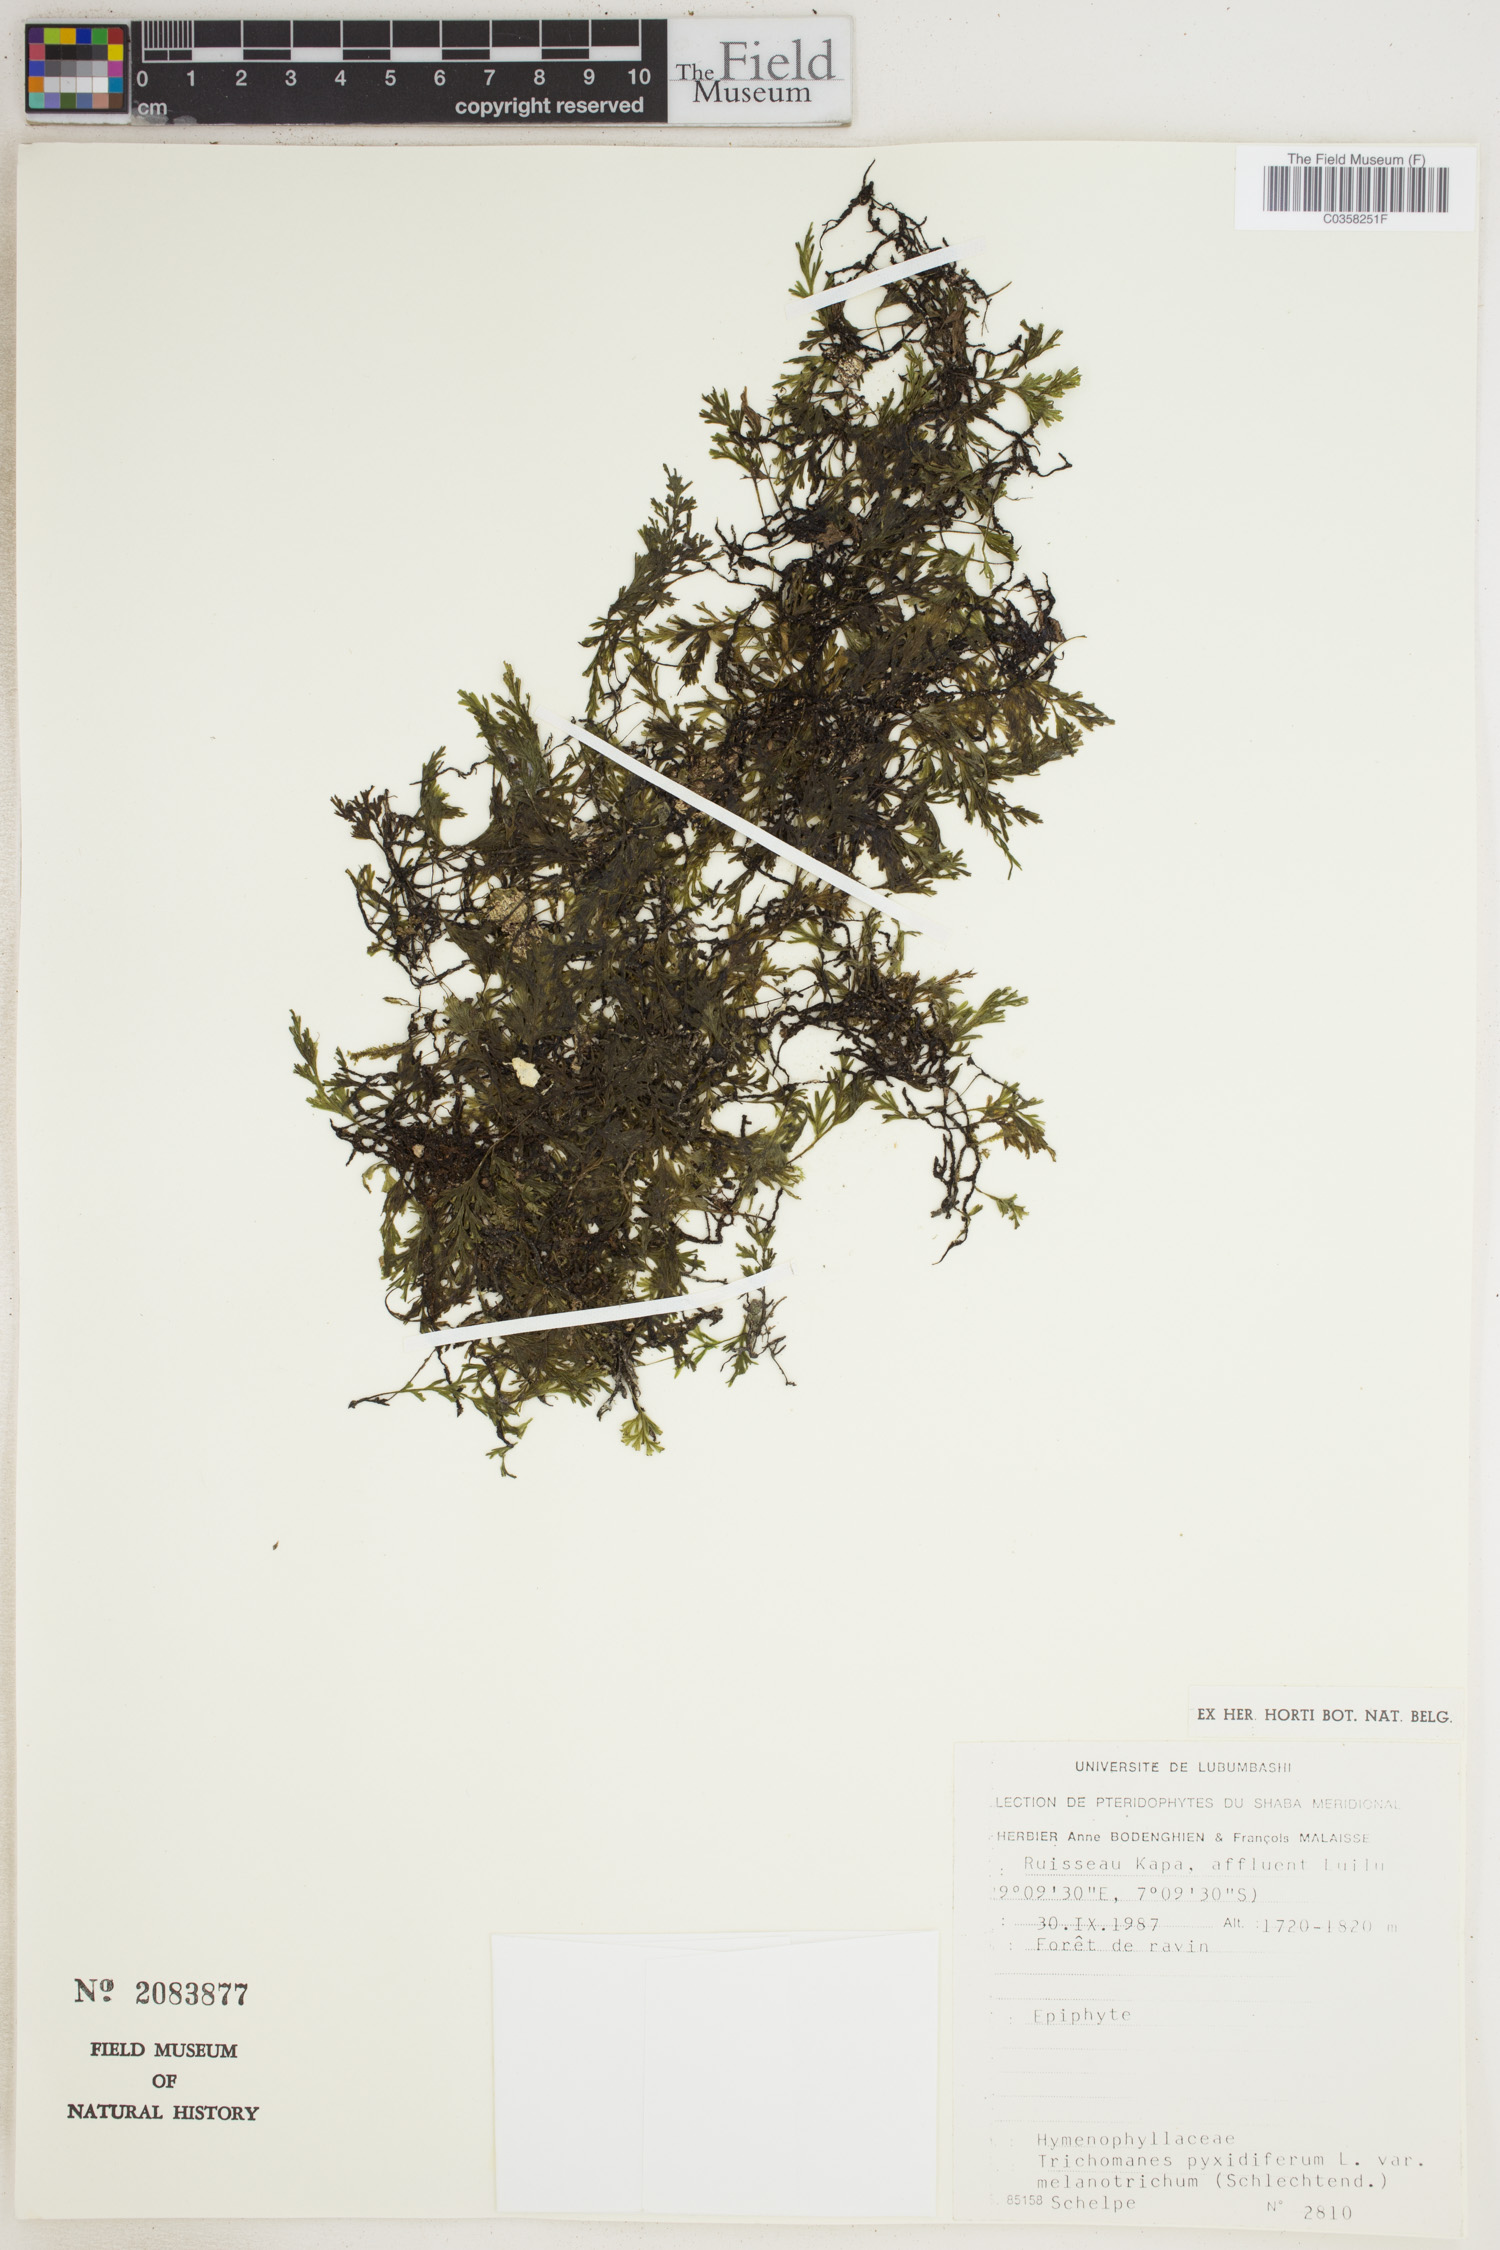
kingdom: Plantae
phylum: Tracheophyta
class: Polypodiopsida
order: Hymenophyllales
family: Hymenophyllaceae
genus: Crepidomanes
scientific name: Crepidomanes melanotrichum
